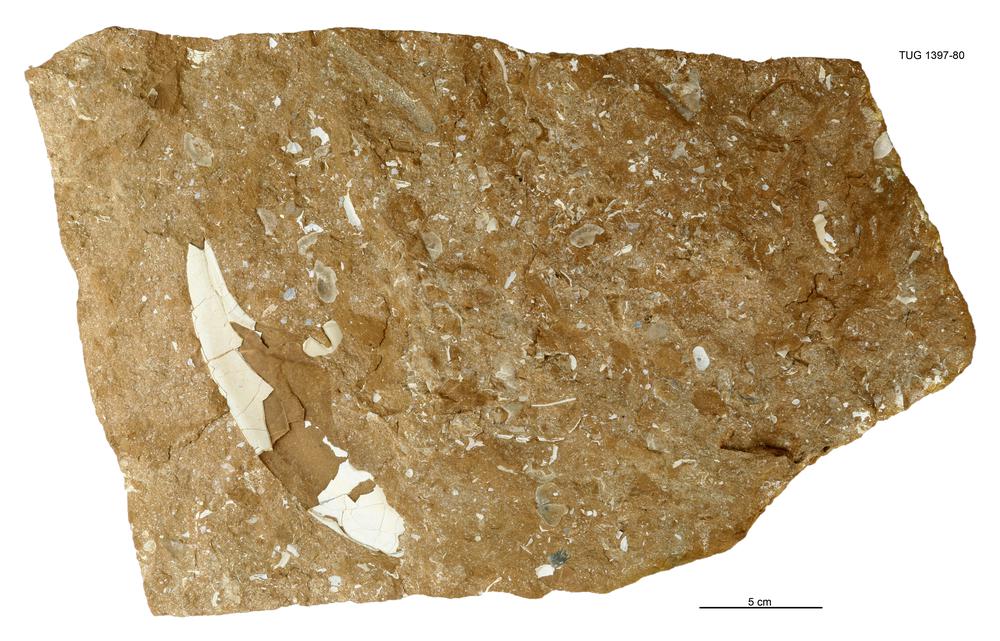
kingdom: Animalia
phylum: Arthropoda
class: Trilobita
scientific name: Trilobita
